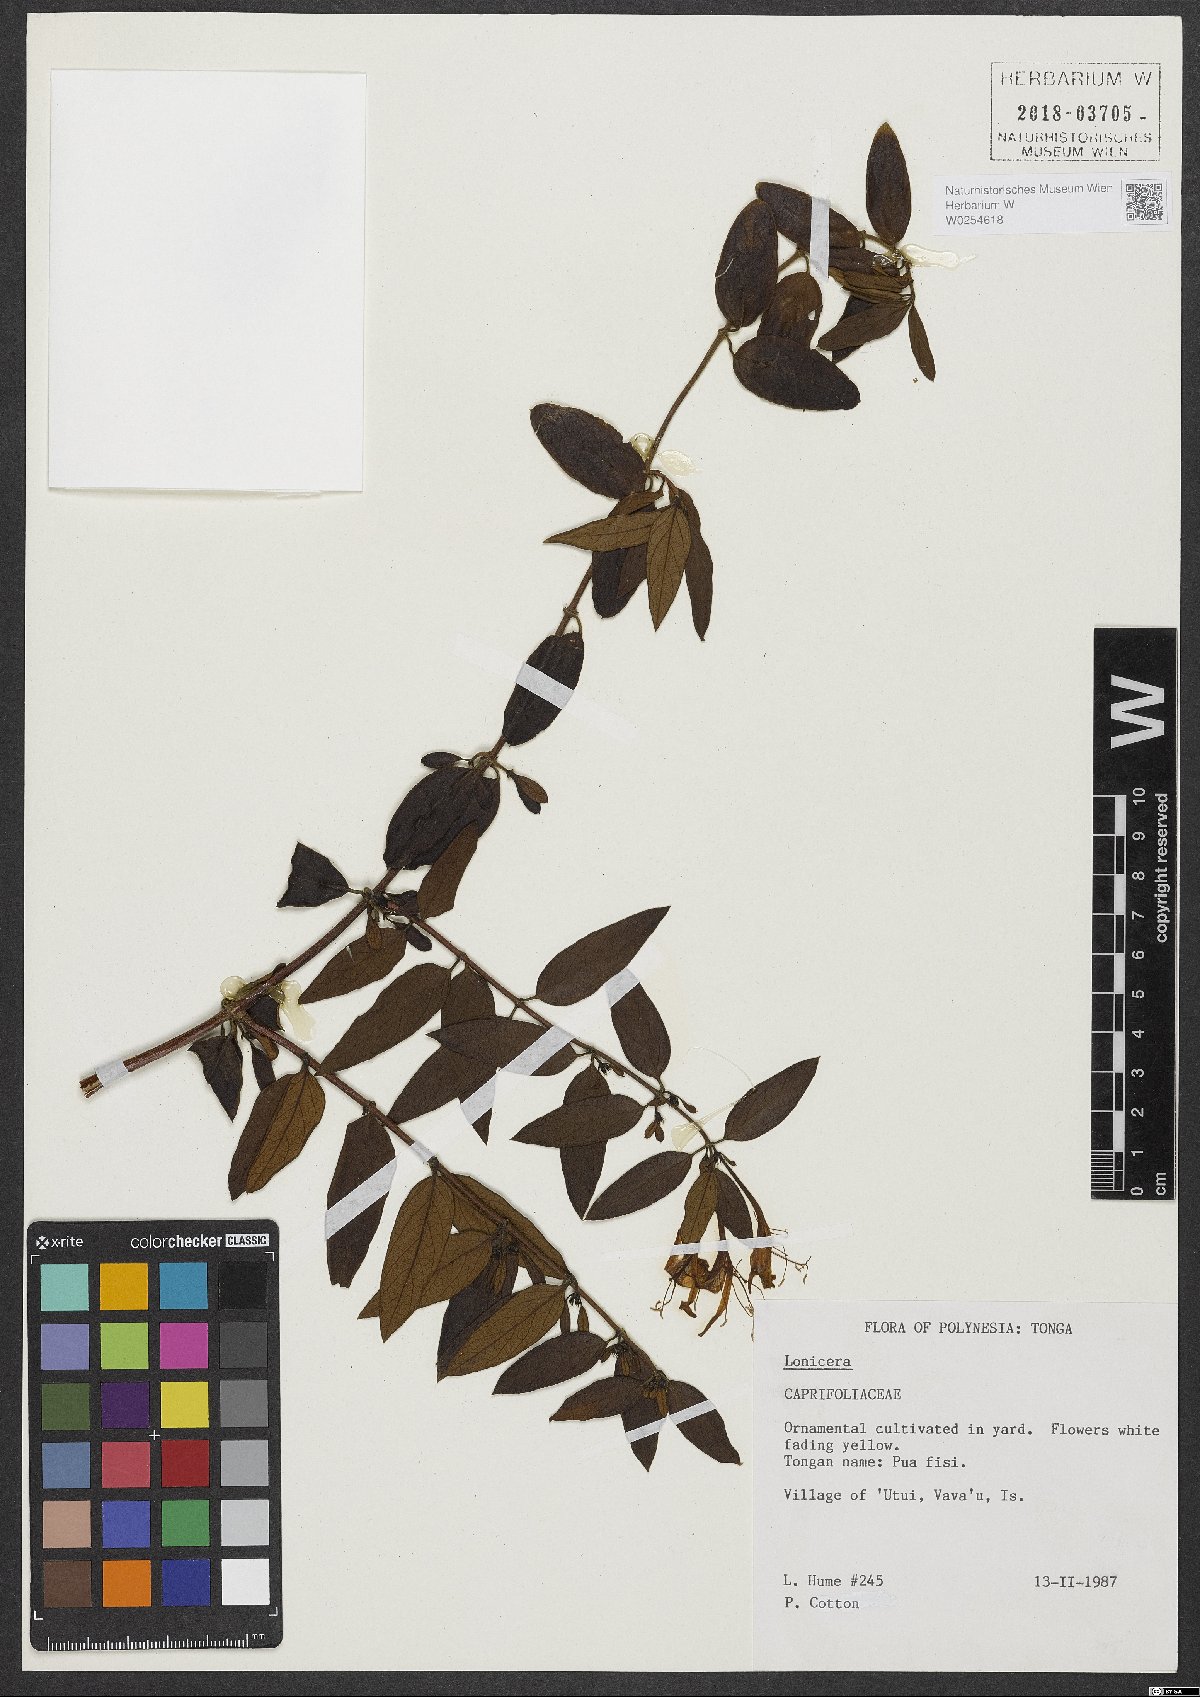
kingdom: Plantae
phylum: Tracheophyta
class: Magnoliopsida
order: Dipsacales
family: Caprifoliaceae
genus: Lonicera
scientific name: Lonicera
